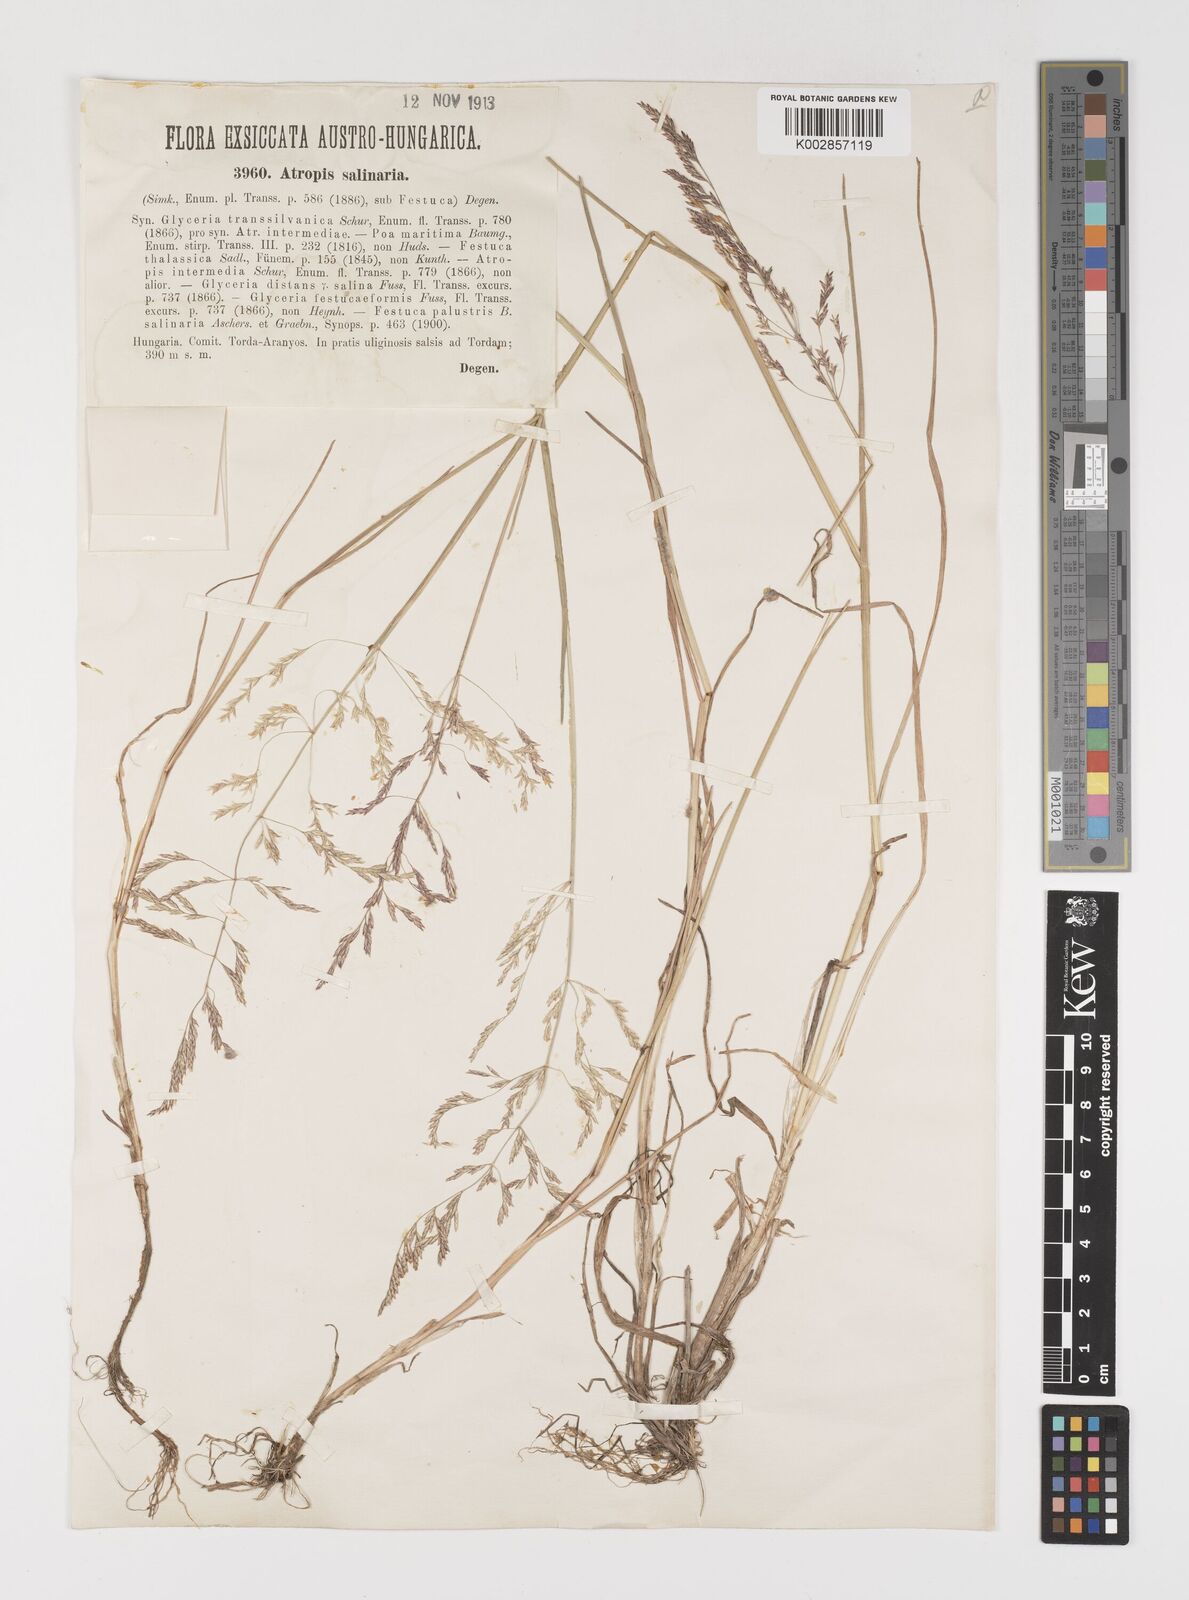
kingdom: Plantae
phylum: Tracheophyta
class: Liliopsida
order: Poales
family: Poaceae
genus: Puccinellia
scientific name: Puccinellia festuciformis
